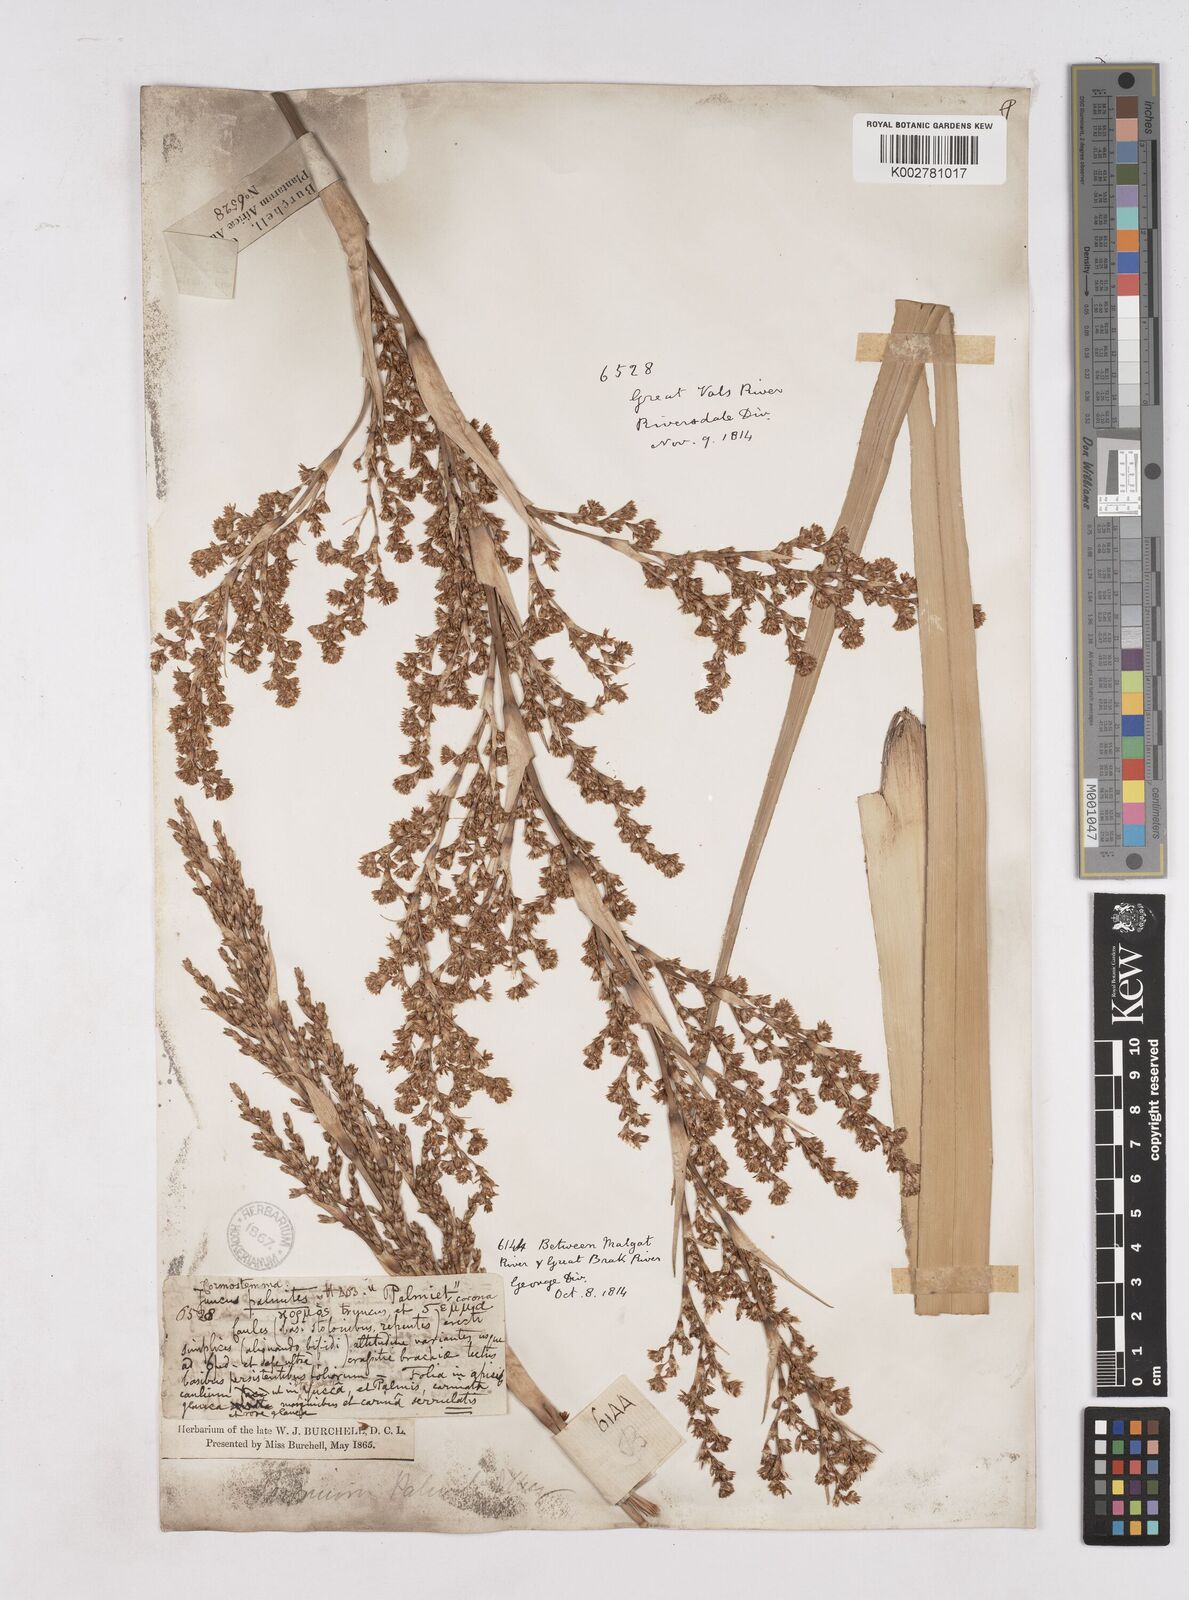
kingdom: Plantae
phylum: Tracheophyta
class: Liliopsida
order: Poales
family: Thurniaceae
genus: Prionium
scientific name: Prionium serratum
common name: Palmiet
